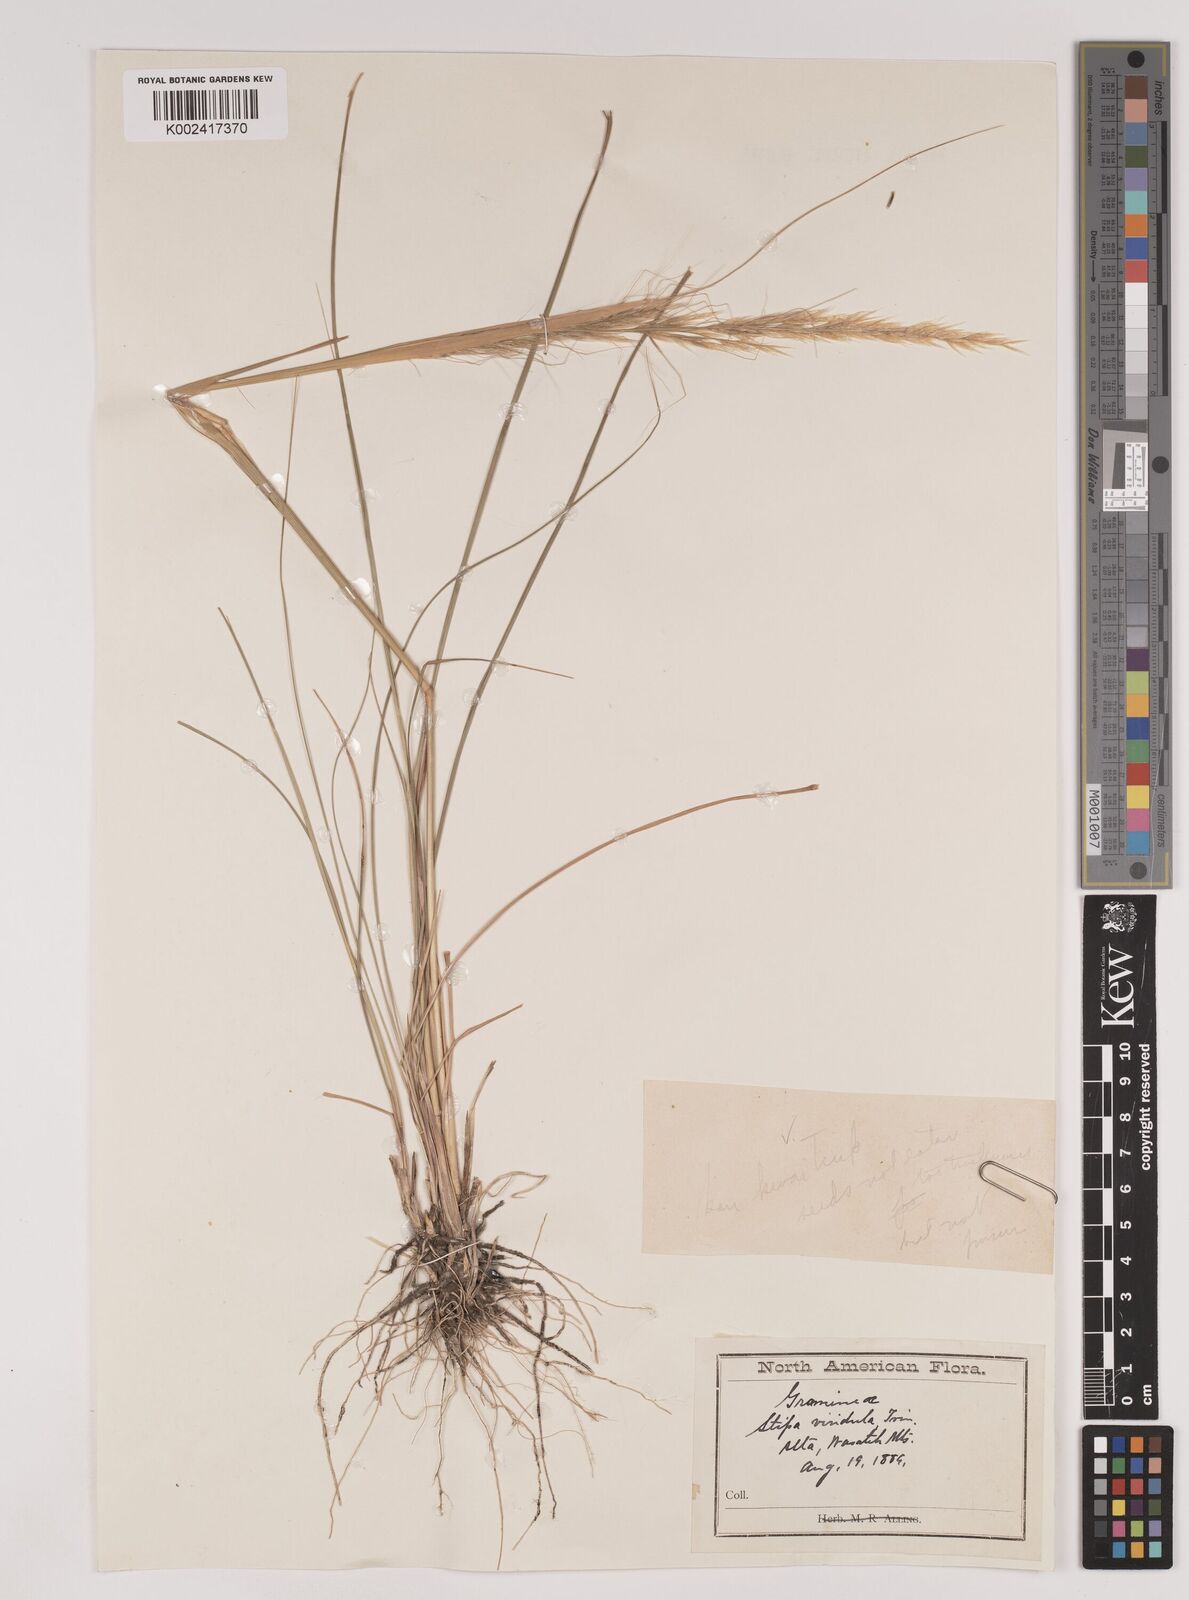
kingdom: Plantae
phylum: Tracheophyta
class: Liliopsida
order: Poales
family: Poaceae
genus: Nassella
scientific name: Nassella viridula
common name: Green needlegrass
